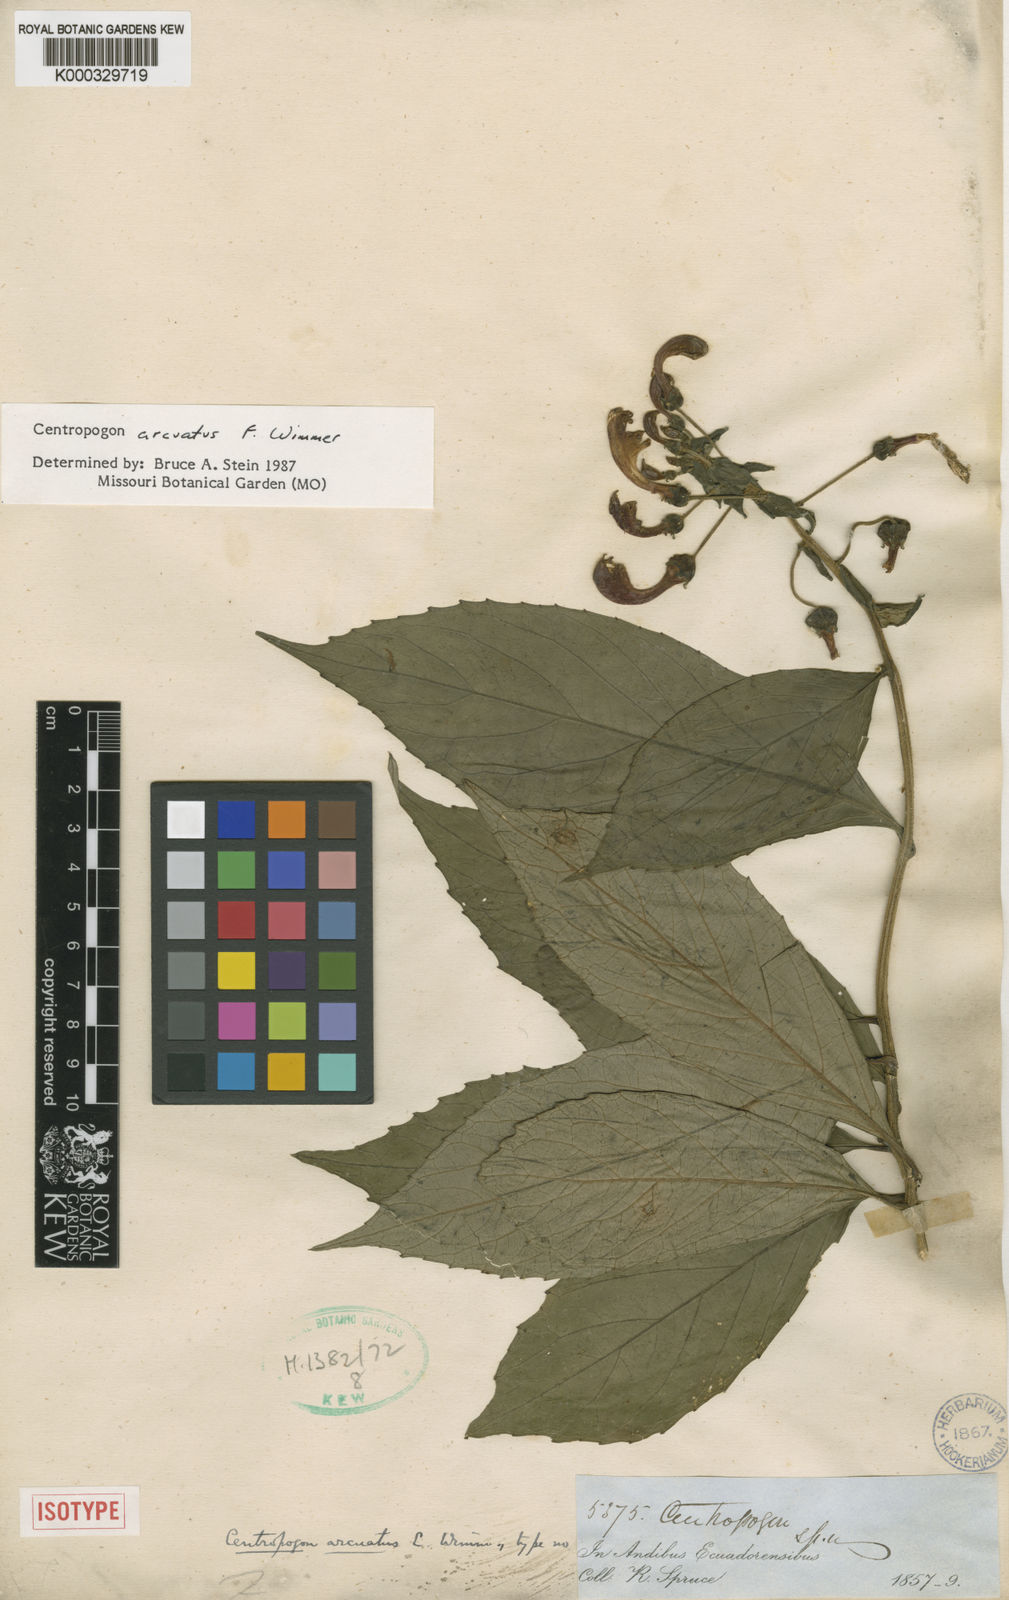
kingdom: Plantae
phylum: Tracheophyta
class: Magnoliopsida
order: Asterales
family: Campanulaceae
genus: Centropogon
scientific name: Centropogon arcuatus
